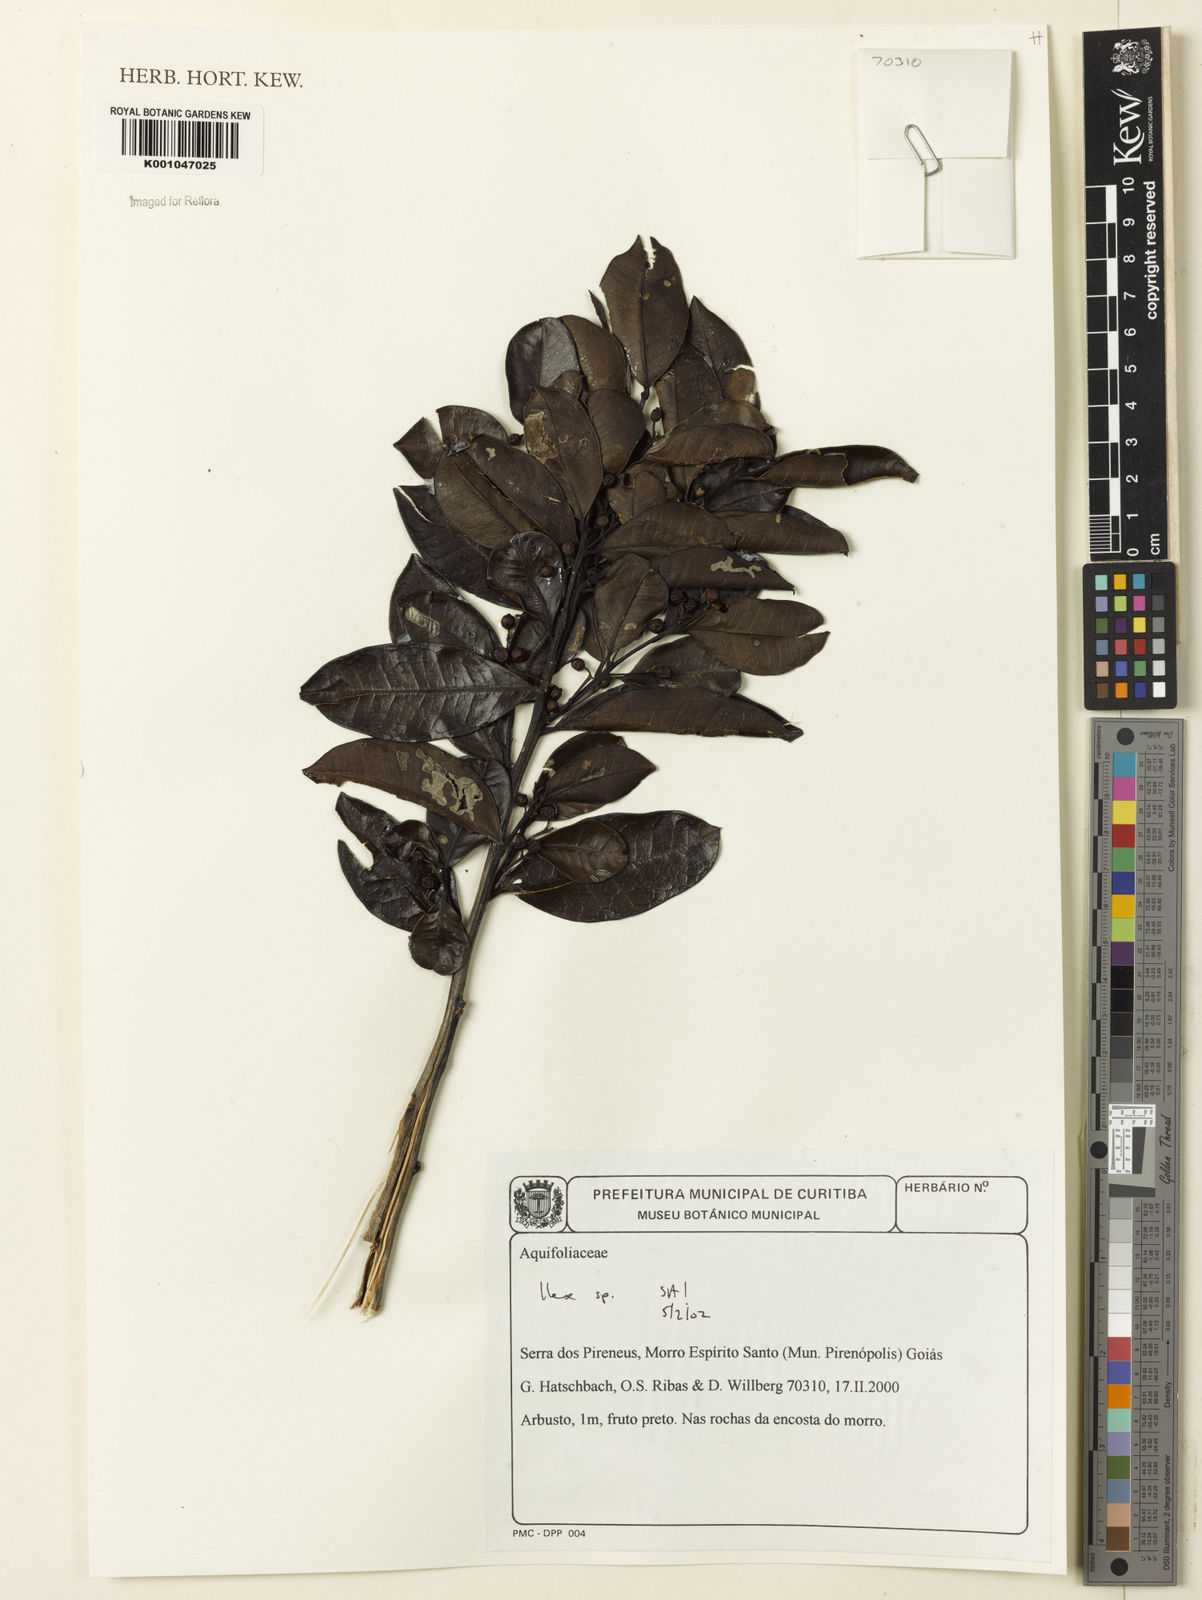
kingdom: Plantae
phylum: Tracheophyta
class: Magnoliopsida
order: Aquifoliales
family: Aquifoliaceae
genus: Ilex
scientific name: Ilex
